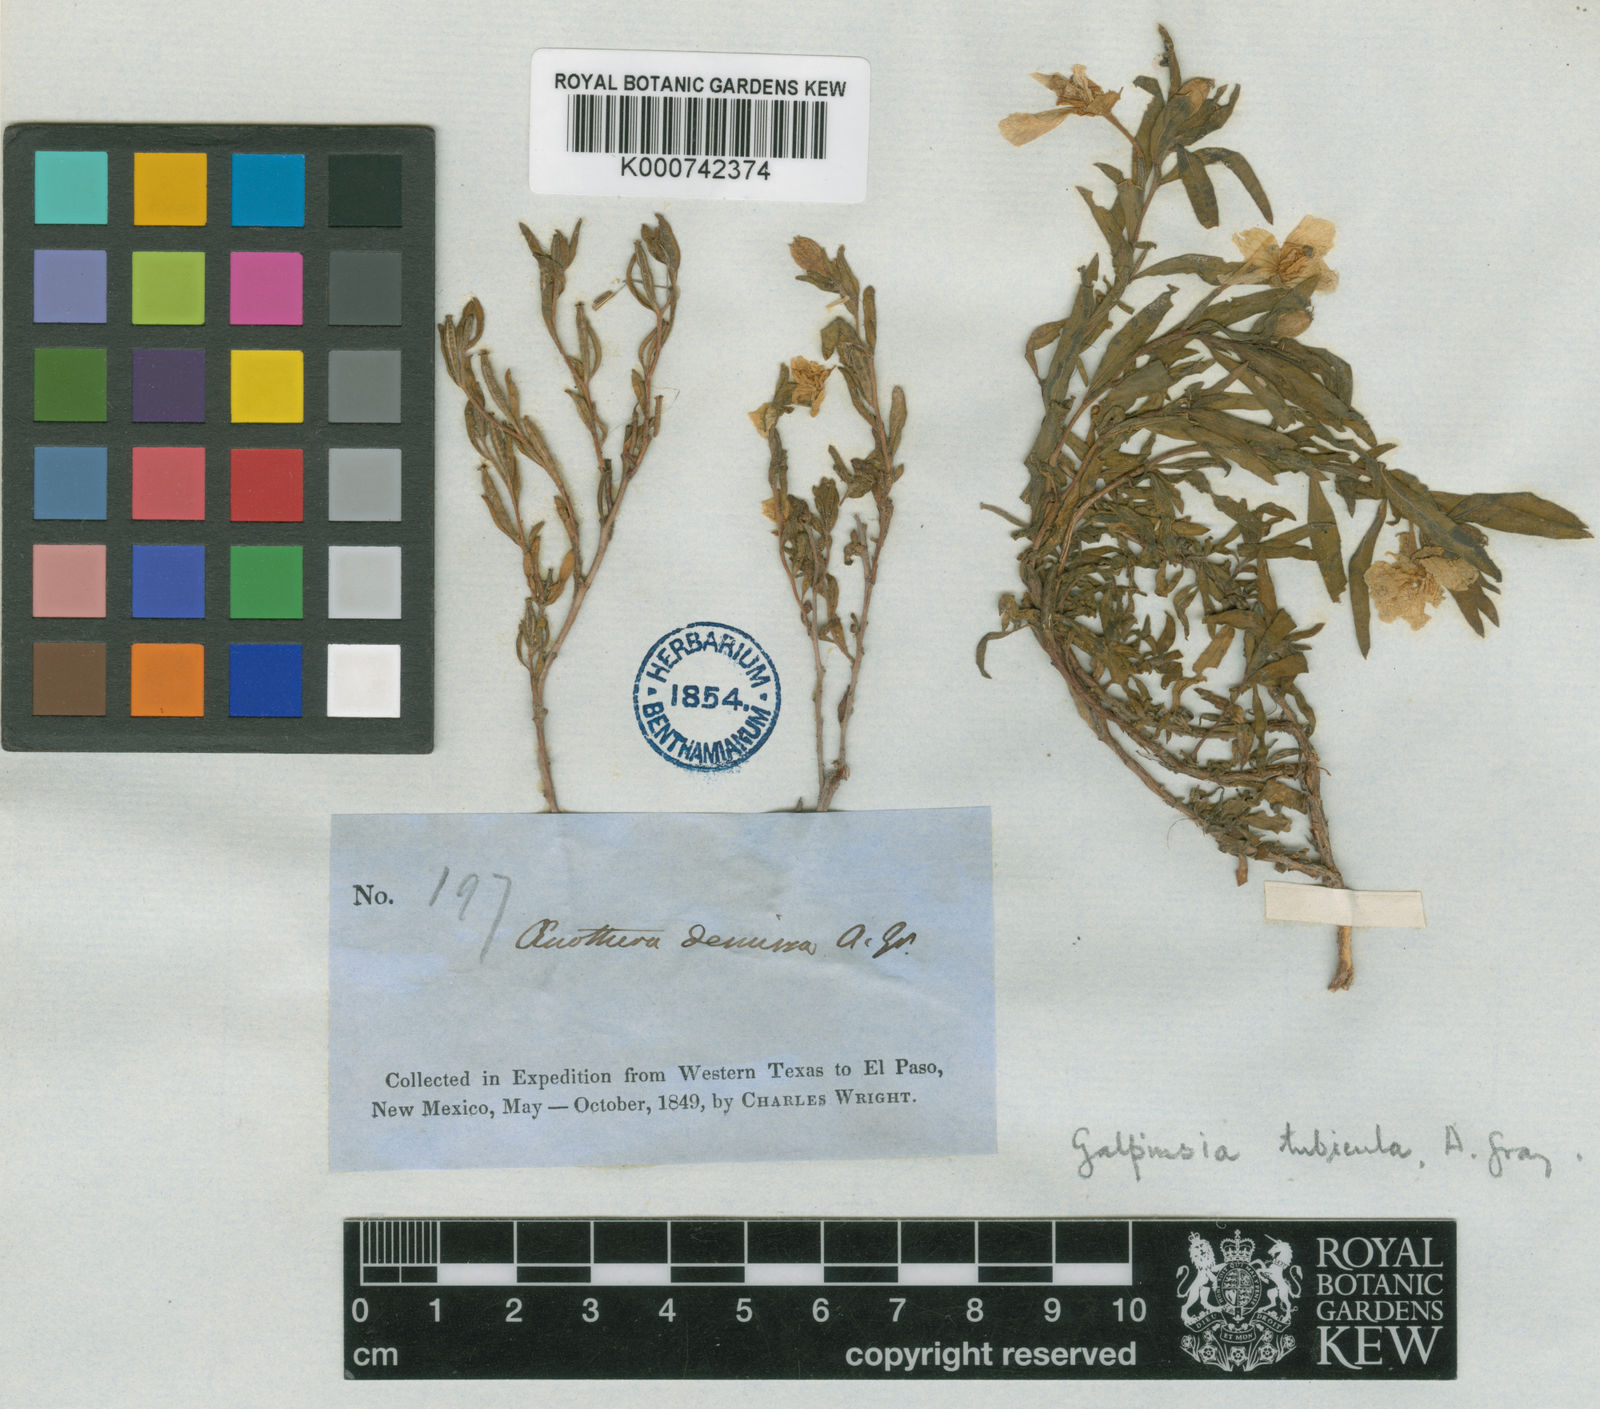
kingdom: Plantae
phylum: Tracheophyta
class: Magnoliopsida
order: Myrtales
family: Onagraceae
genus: Oenothera
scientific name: Oenothera tubicula
